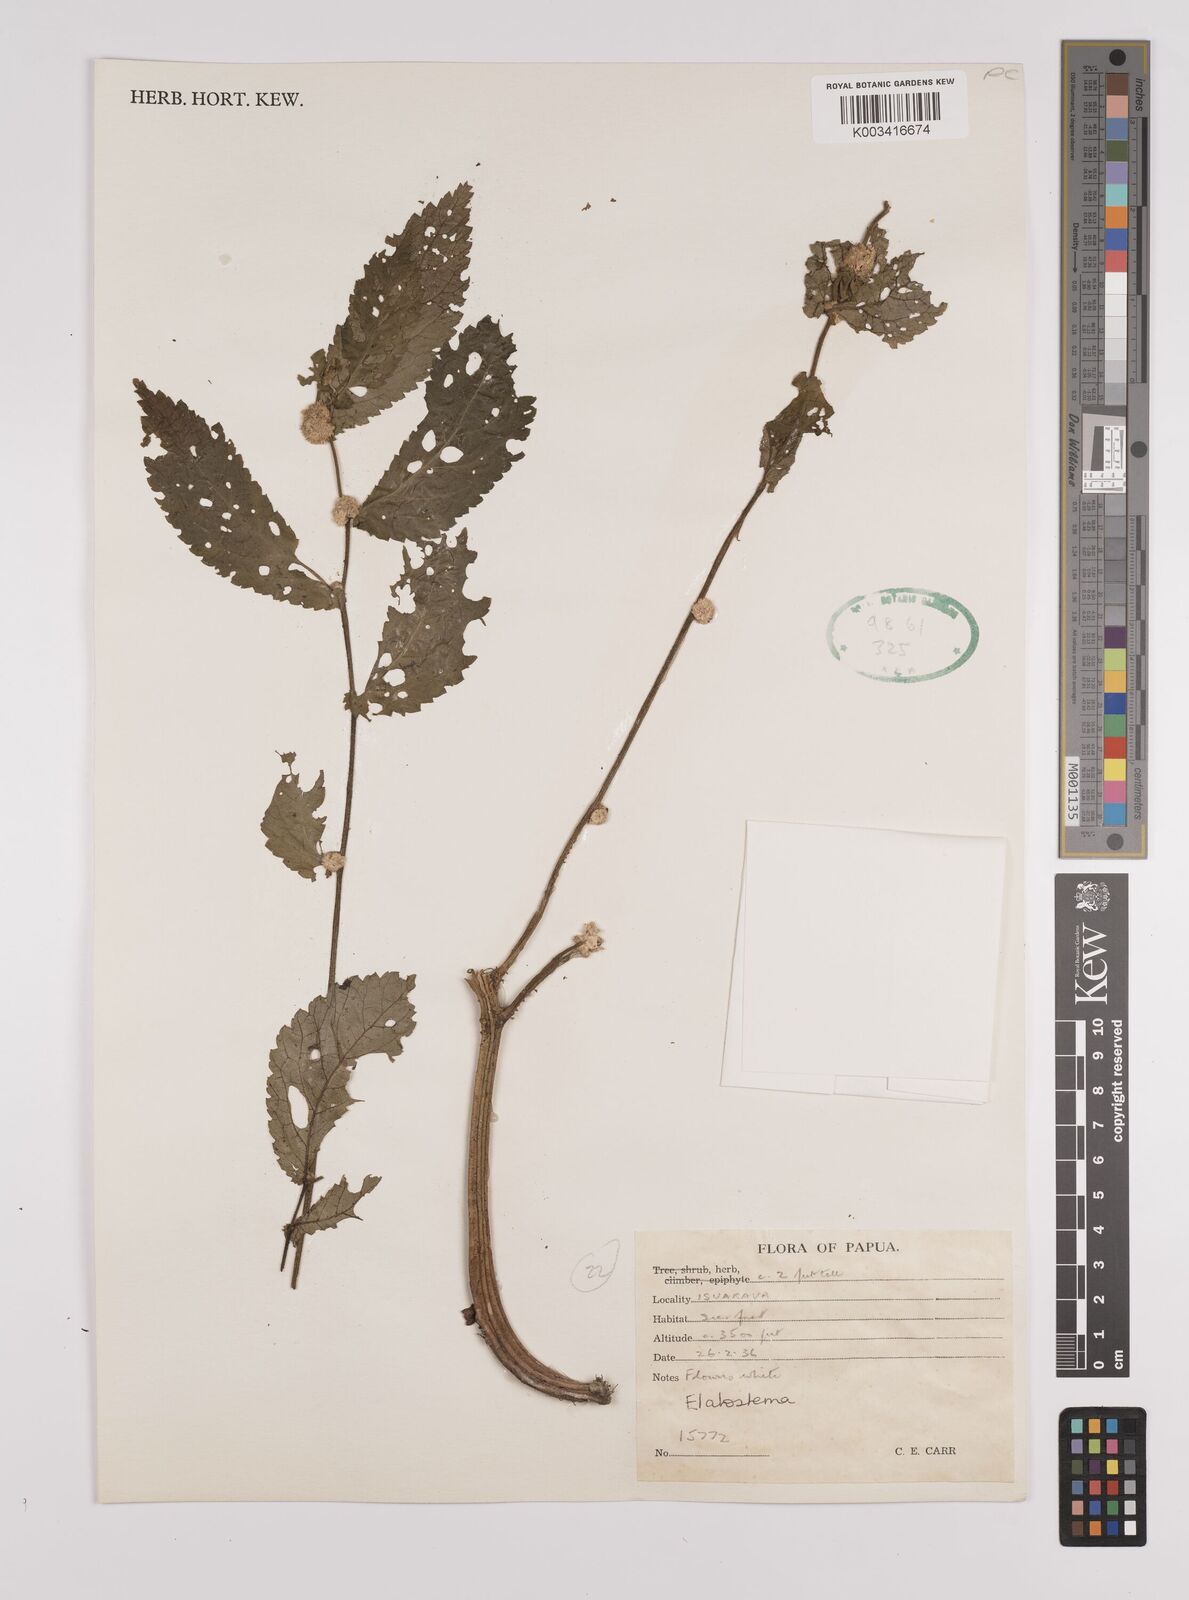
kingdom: Plantae
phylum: Tracheophyta
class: Magnoliopsida
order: Rosales
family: Urticaceae
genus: Elatostema
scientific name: Elatostema
